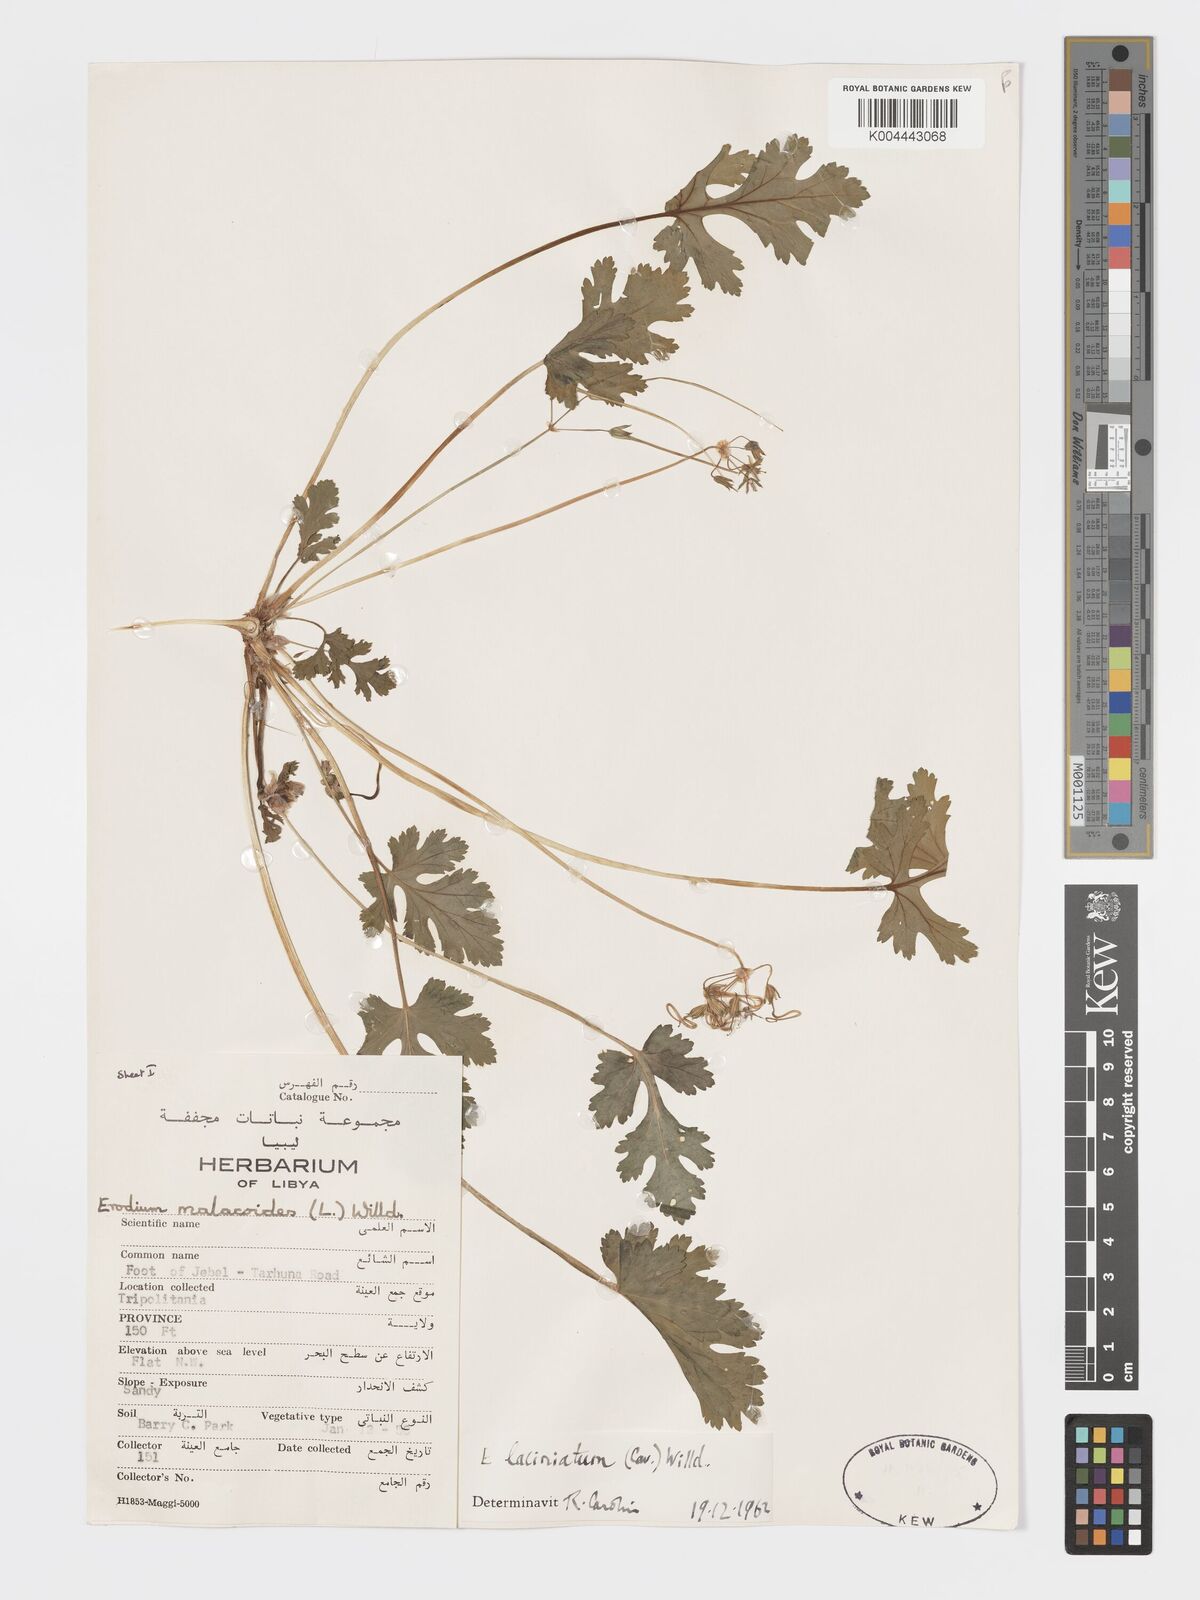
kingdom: Plantae
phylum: Tracheophyta
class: Magnoliopsida
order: Geraniales
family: Geraniaceae
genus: Erodium
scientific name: Erodium laciniatum
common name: Cutleaf stork's bill
